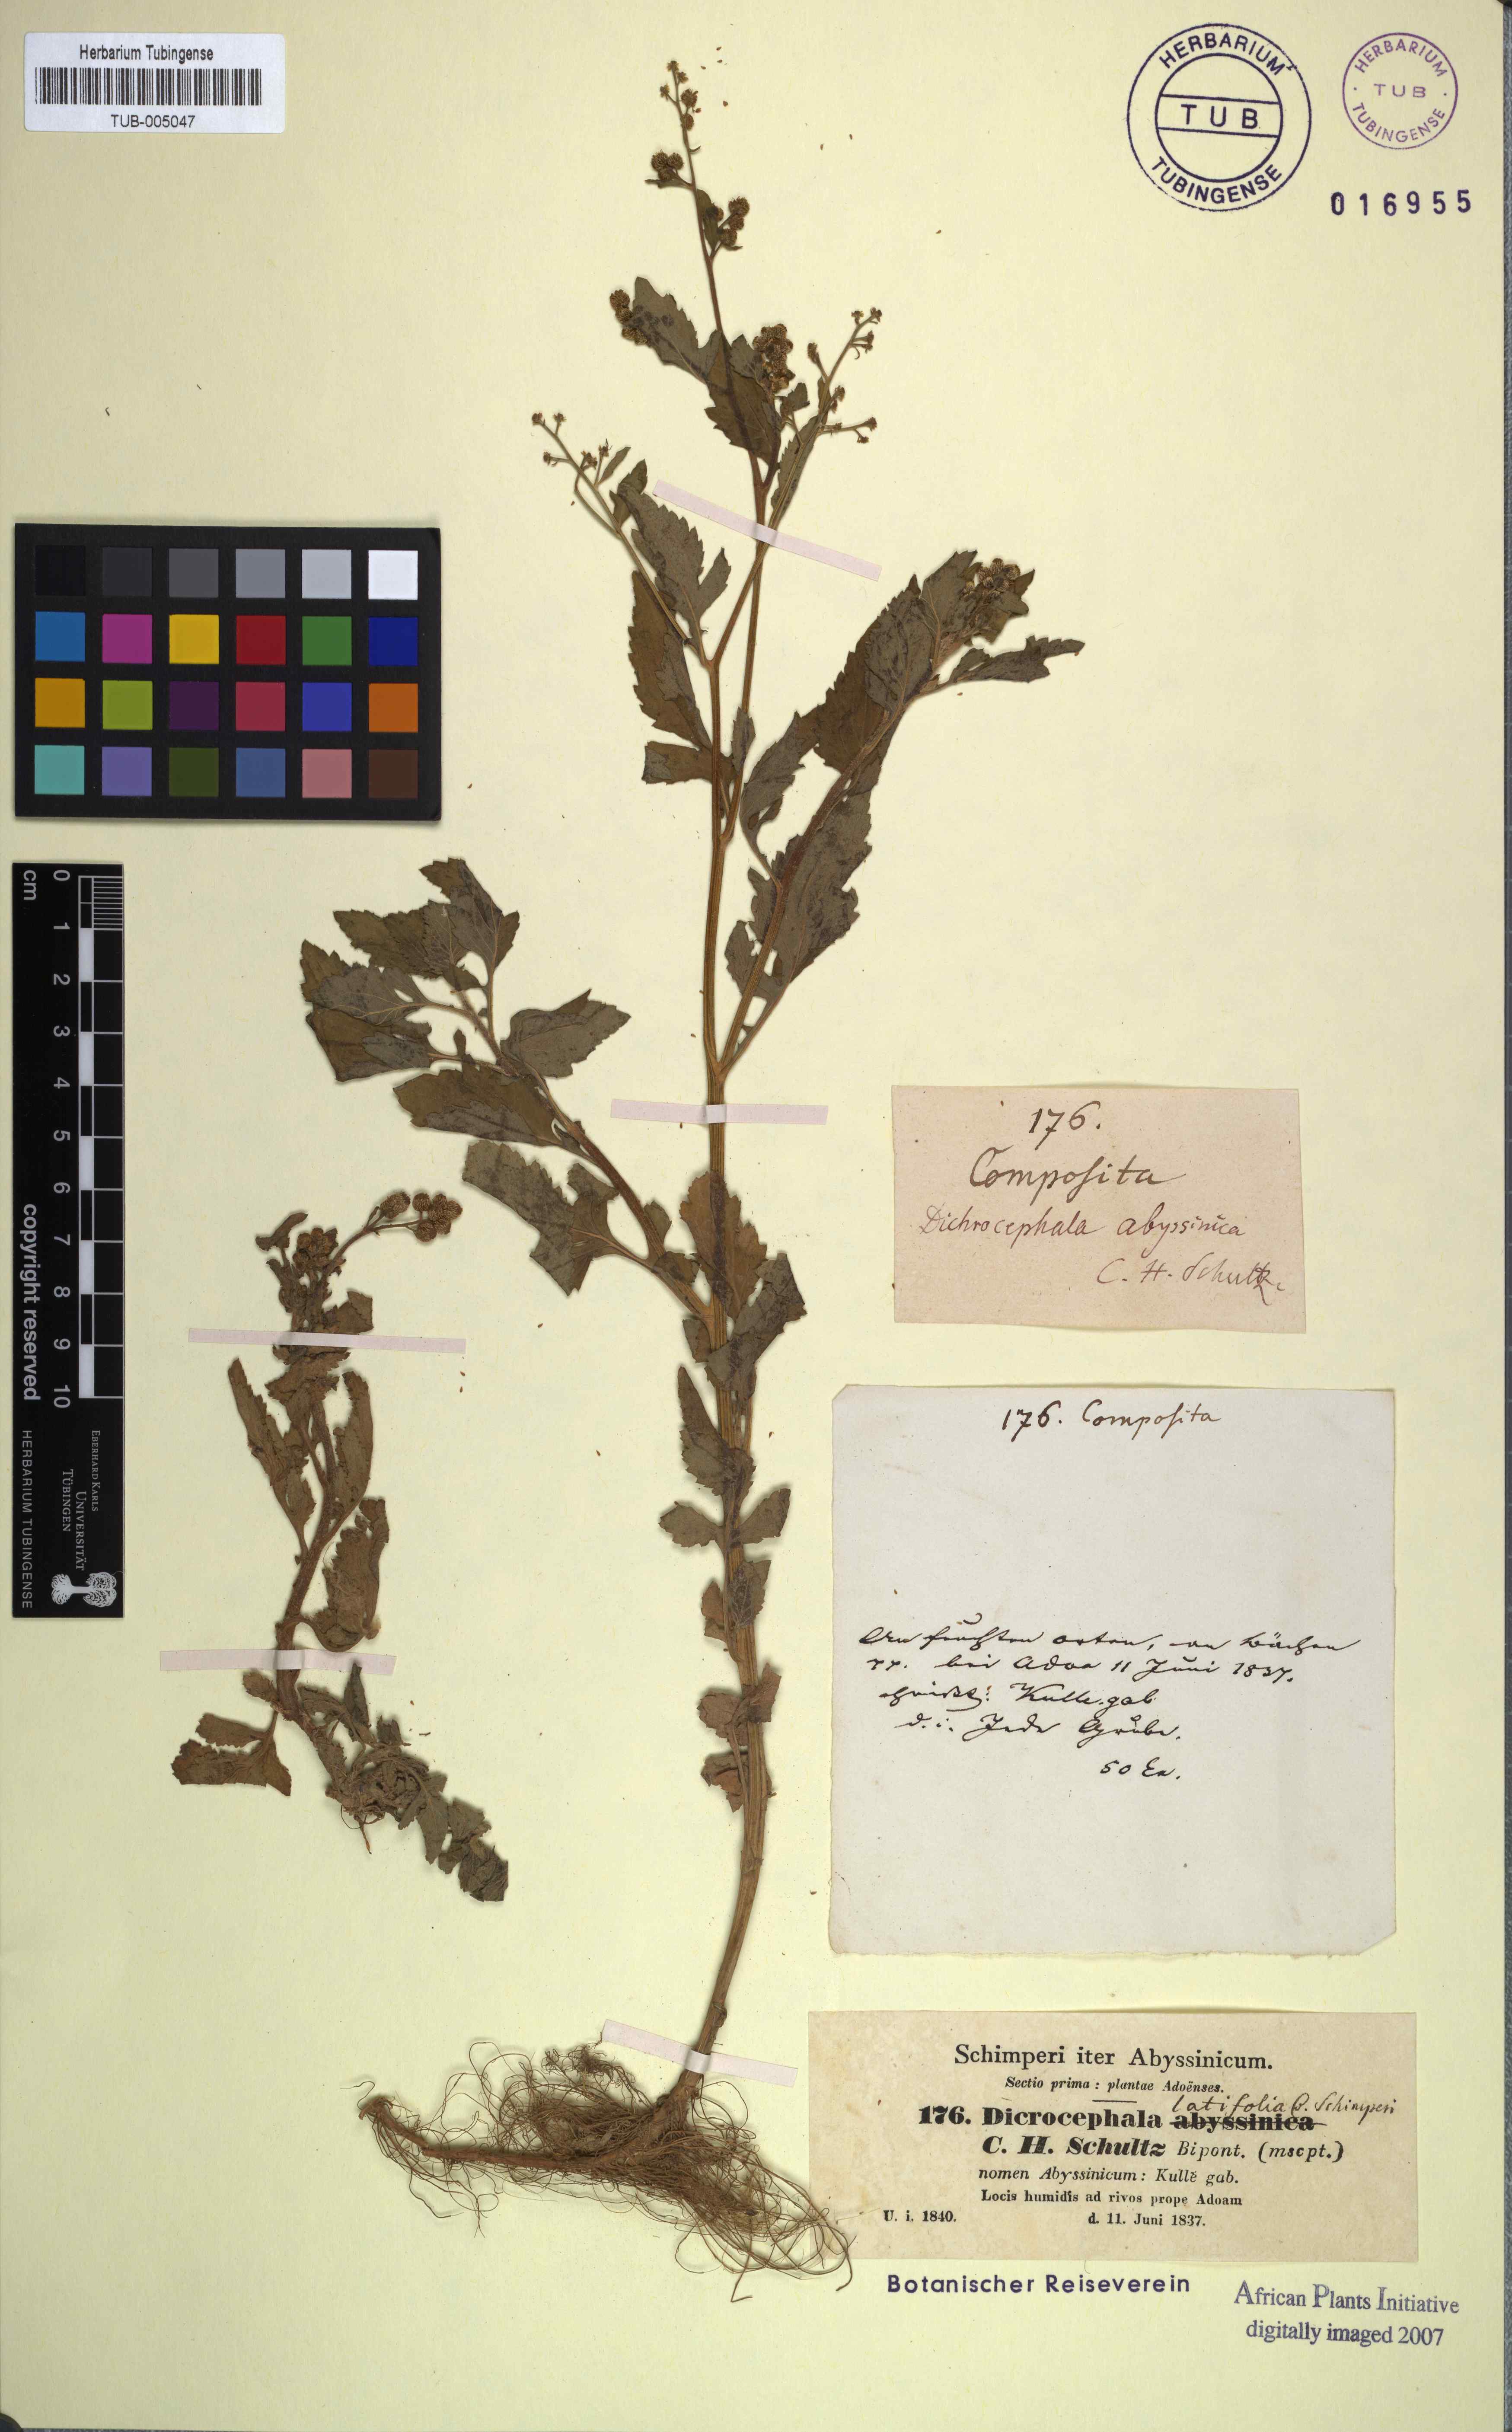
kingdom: Plantae
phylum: Tracheophyta
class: Magnoliopsida
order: Asterales
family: Asteraceae
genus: Dichrocephala
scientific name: Dichrocephala integrifolia
